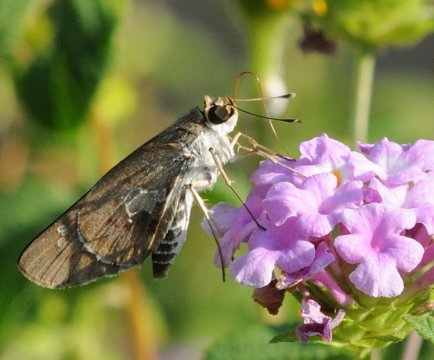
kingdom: Animalia
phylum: Arthropoda
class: Insecta
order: Lepidoptera
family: Hesperiidae
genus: Andronymus
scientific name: Andronymus neander
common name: Nomad Dart
